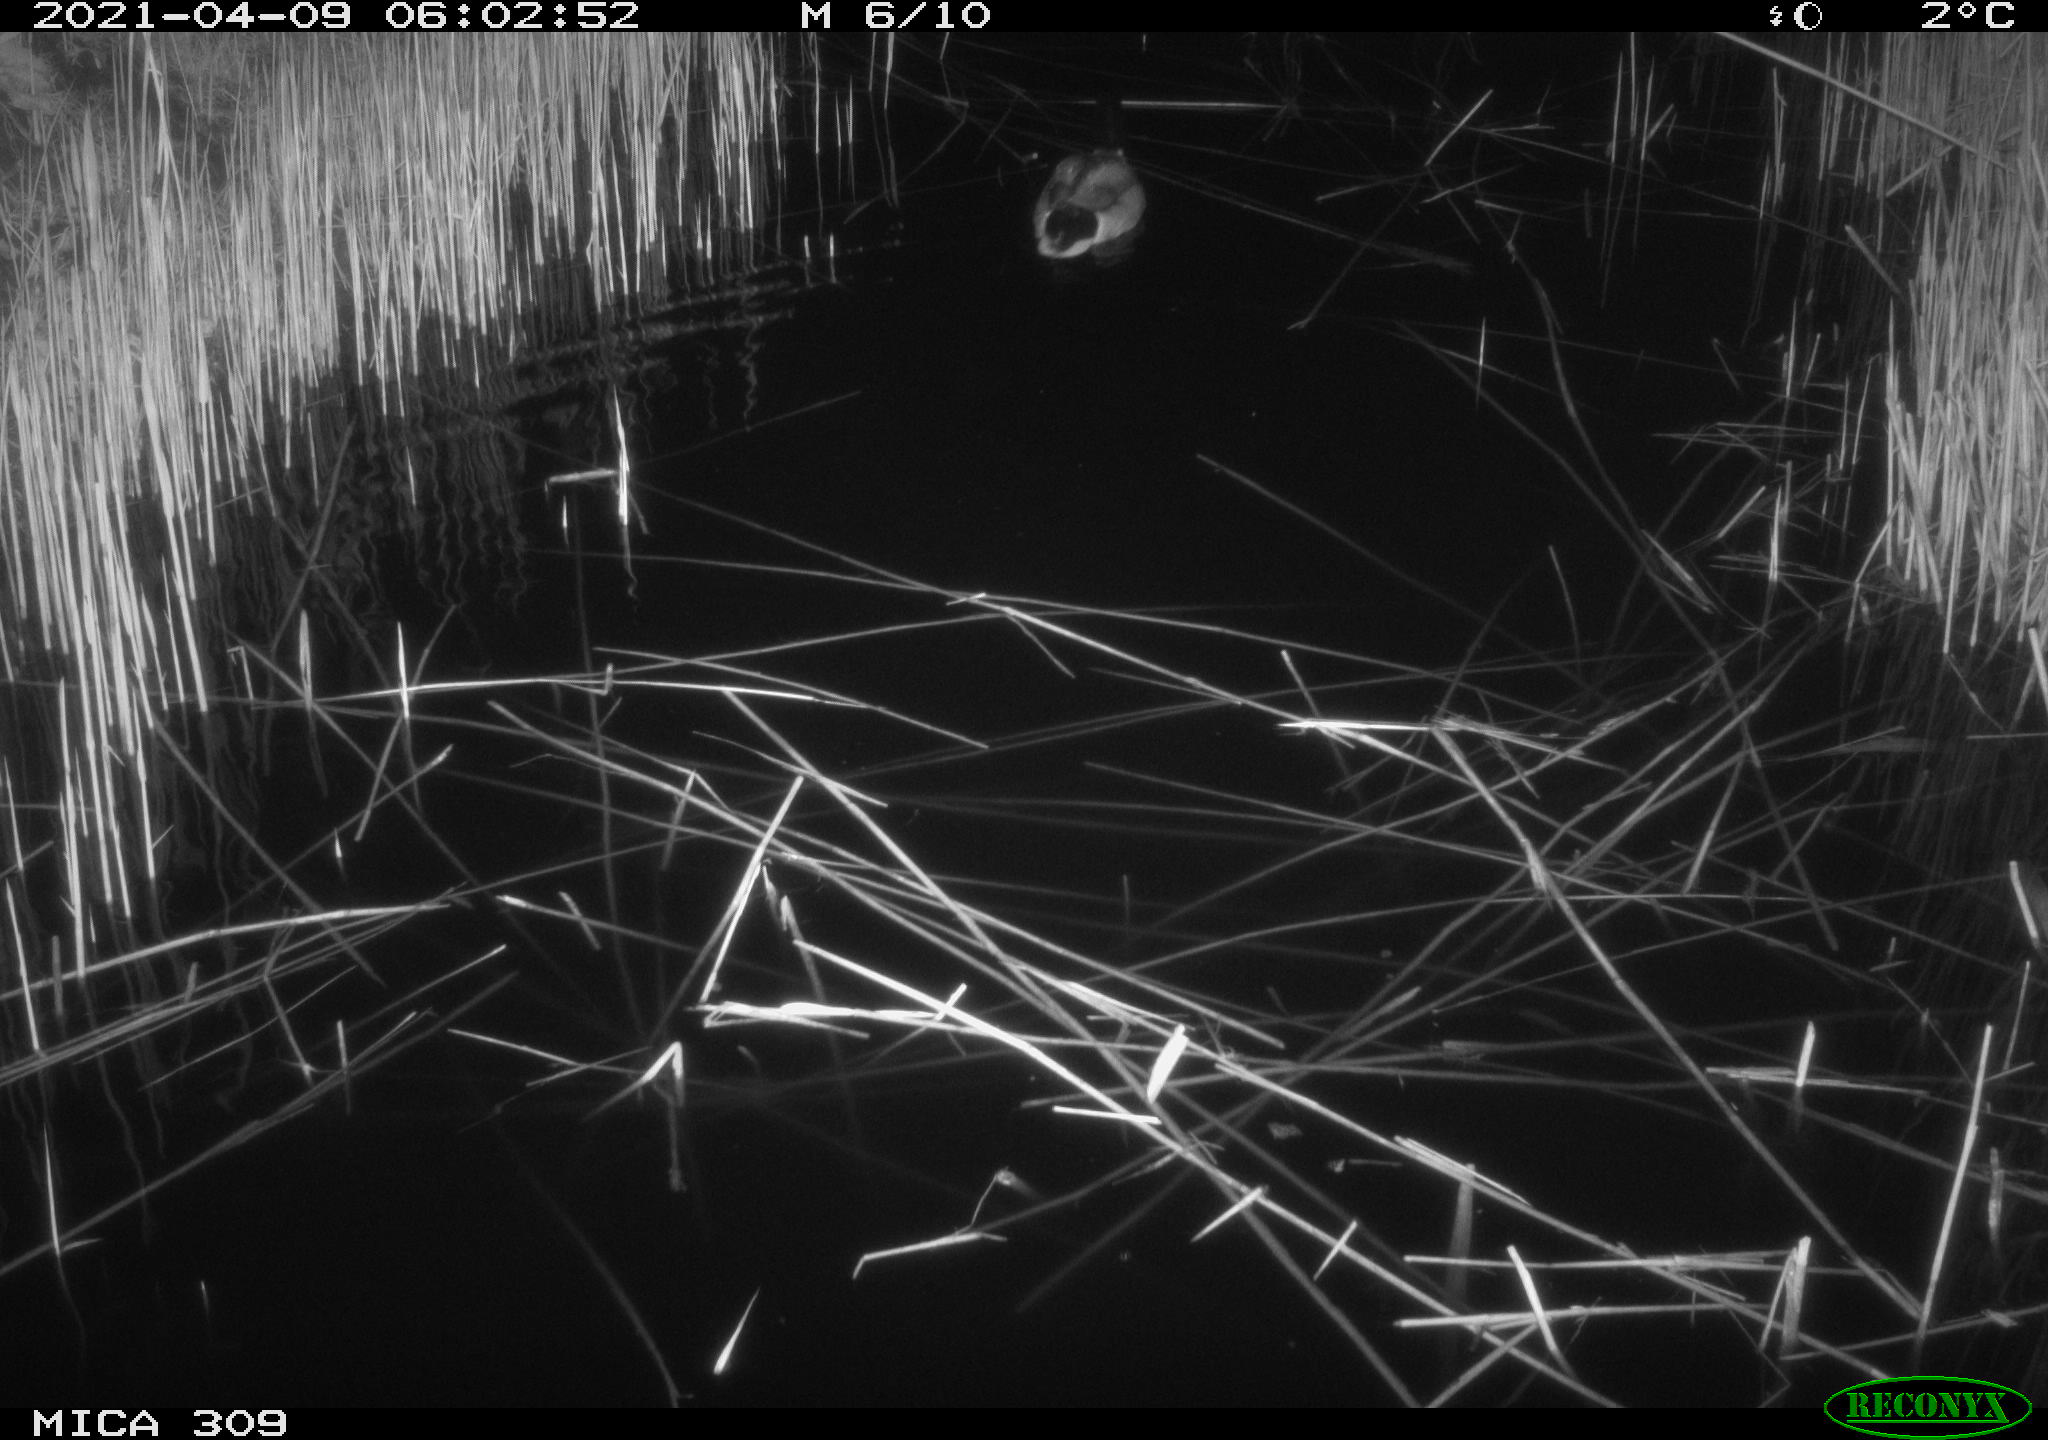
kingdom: Animalia
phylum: Chordata
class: Aves
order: Anseriformes
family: Anatidae
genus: Anas
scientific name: Anas platyrhynchos
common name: Mallard
